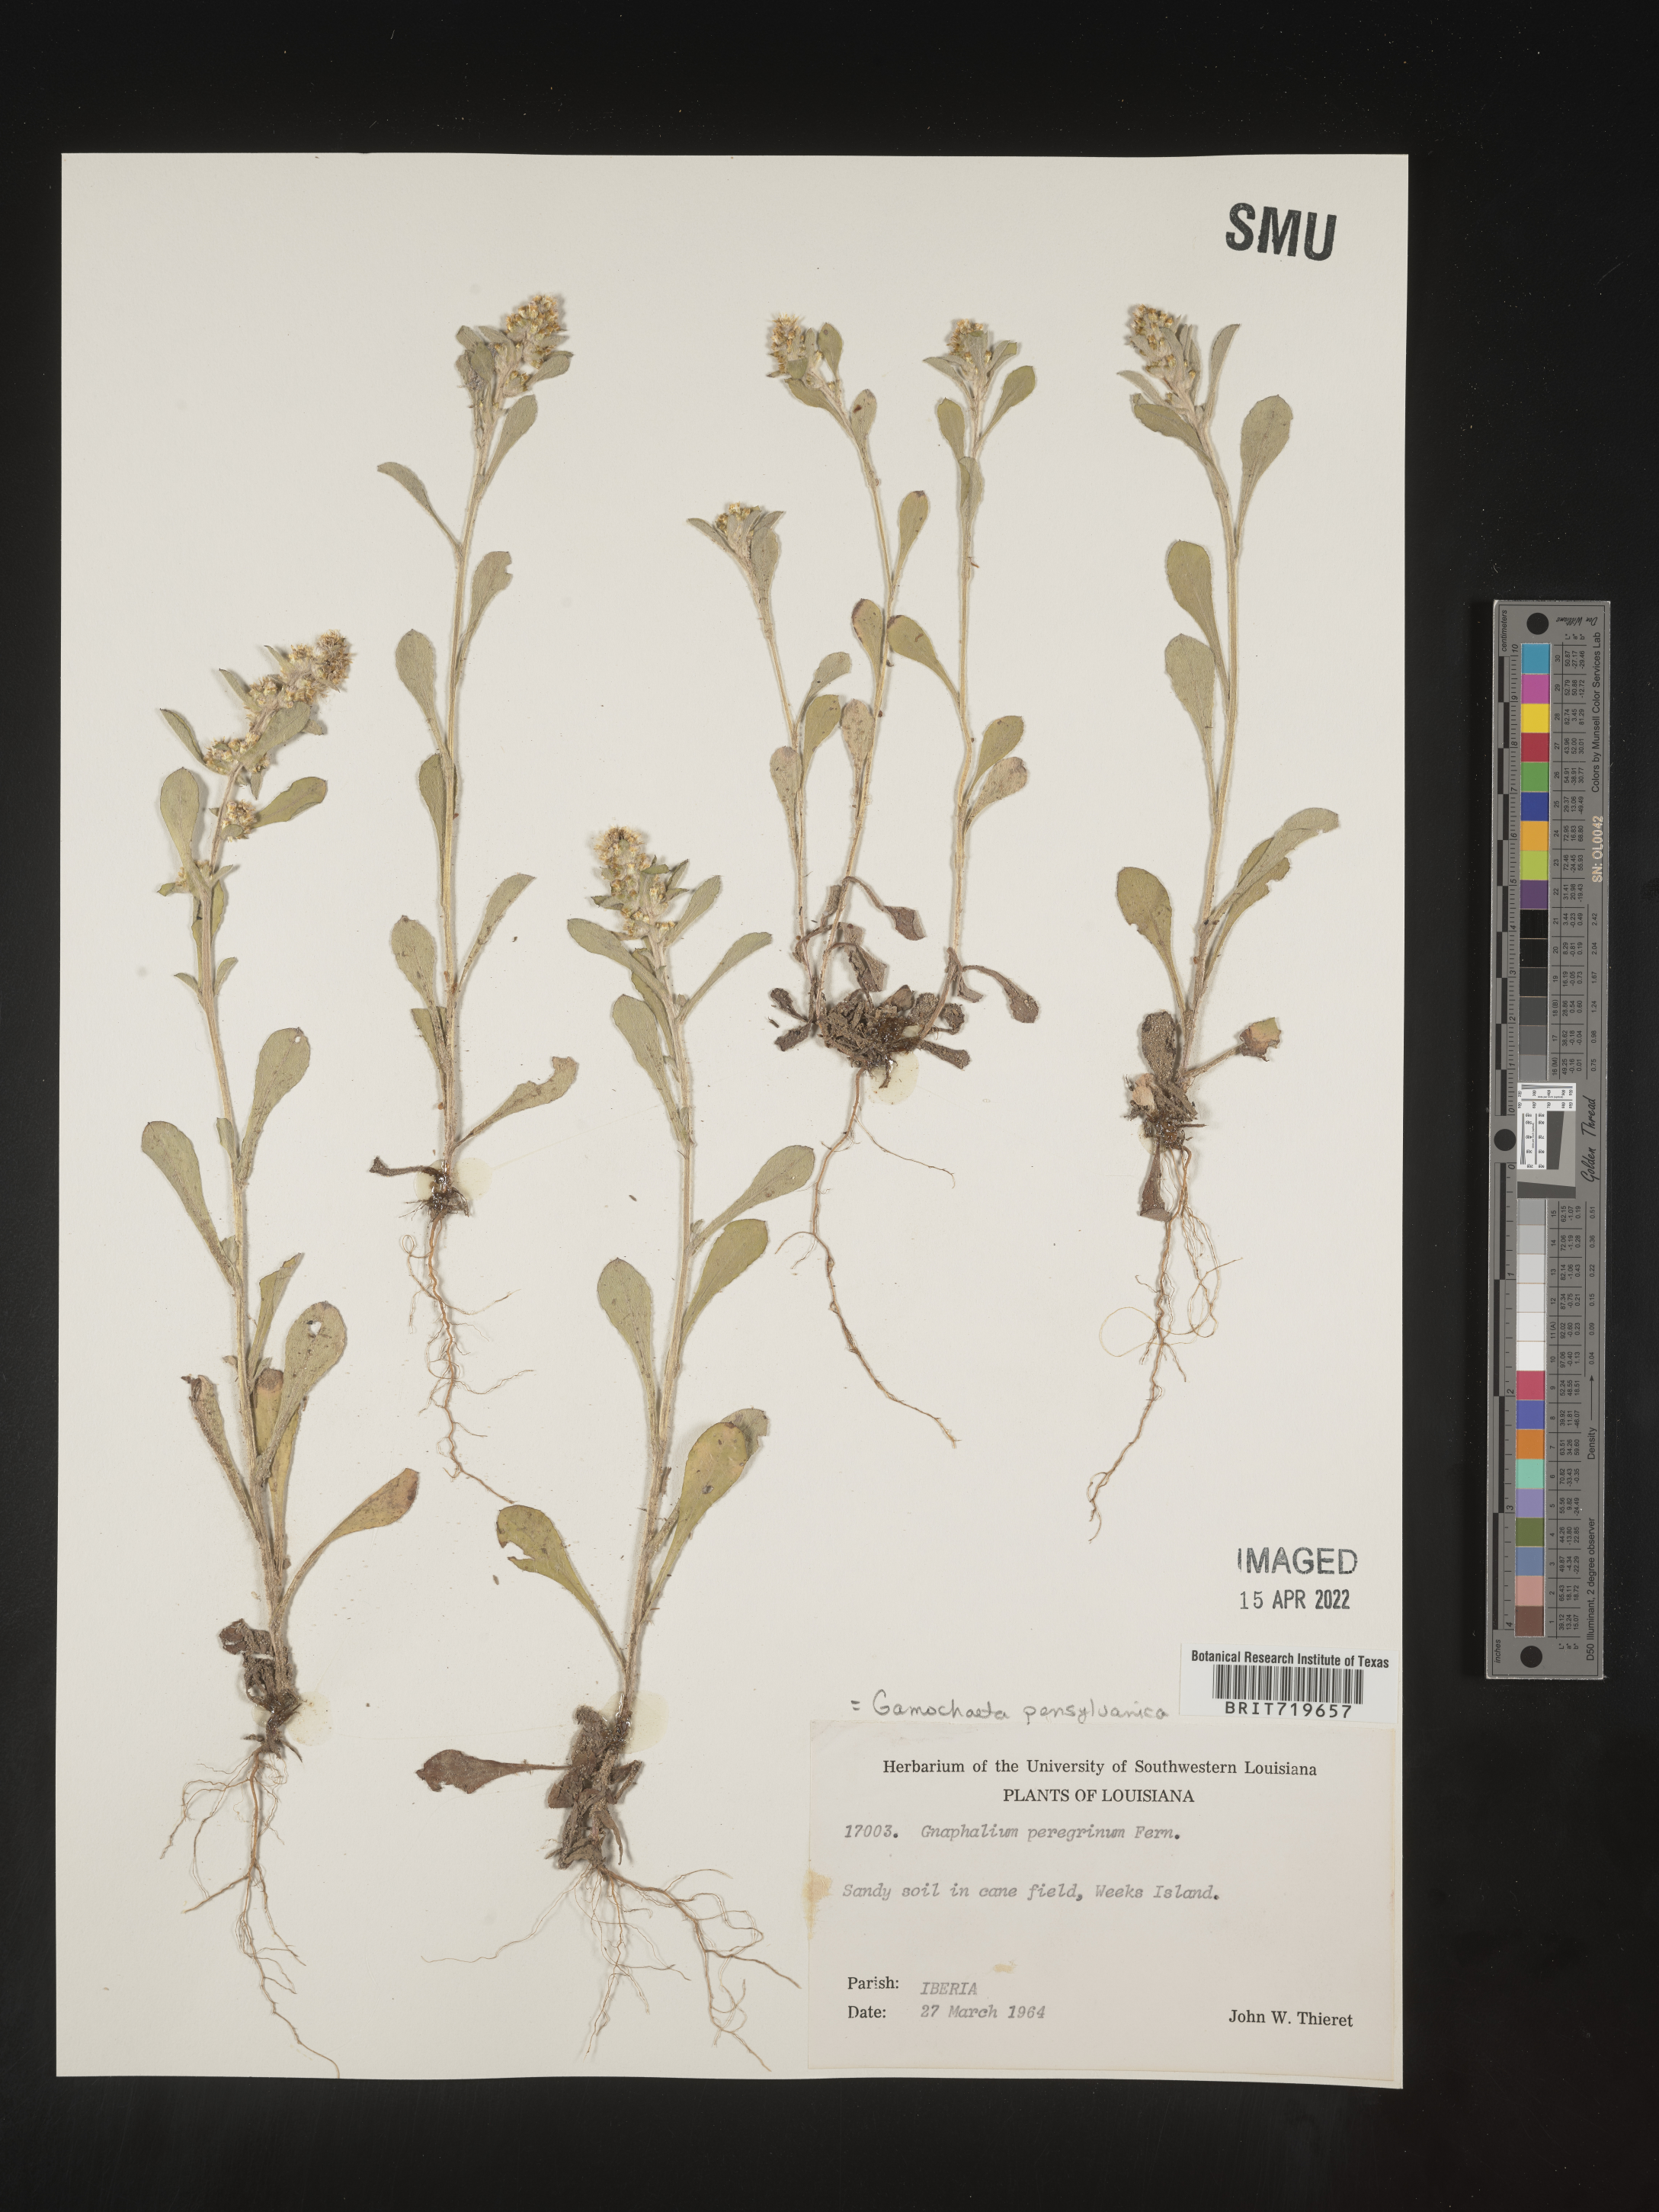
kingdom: Plantae
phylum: Tracheophyta
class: Magnoliopsida
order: Asterales
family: Asteraceae
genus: Gamochaeta
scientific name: Gamochaeta pensylvanica
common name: Pennsylvania everlasting
